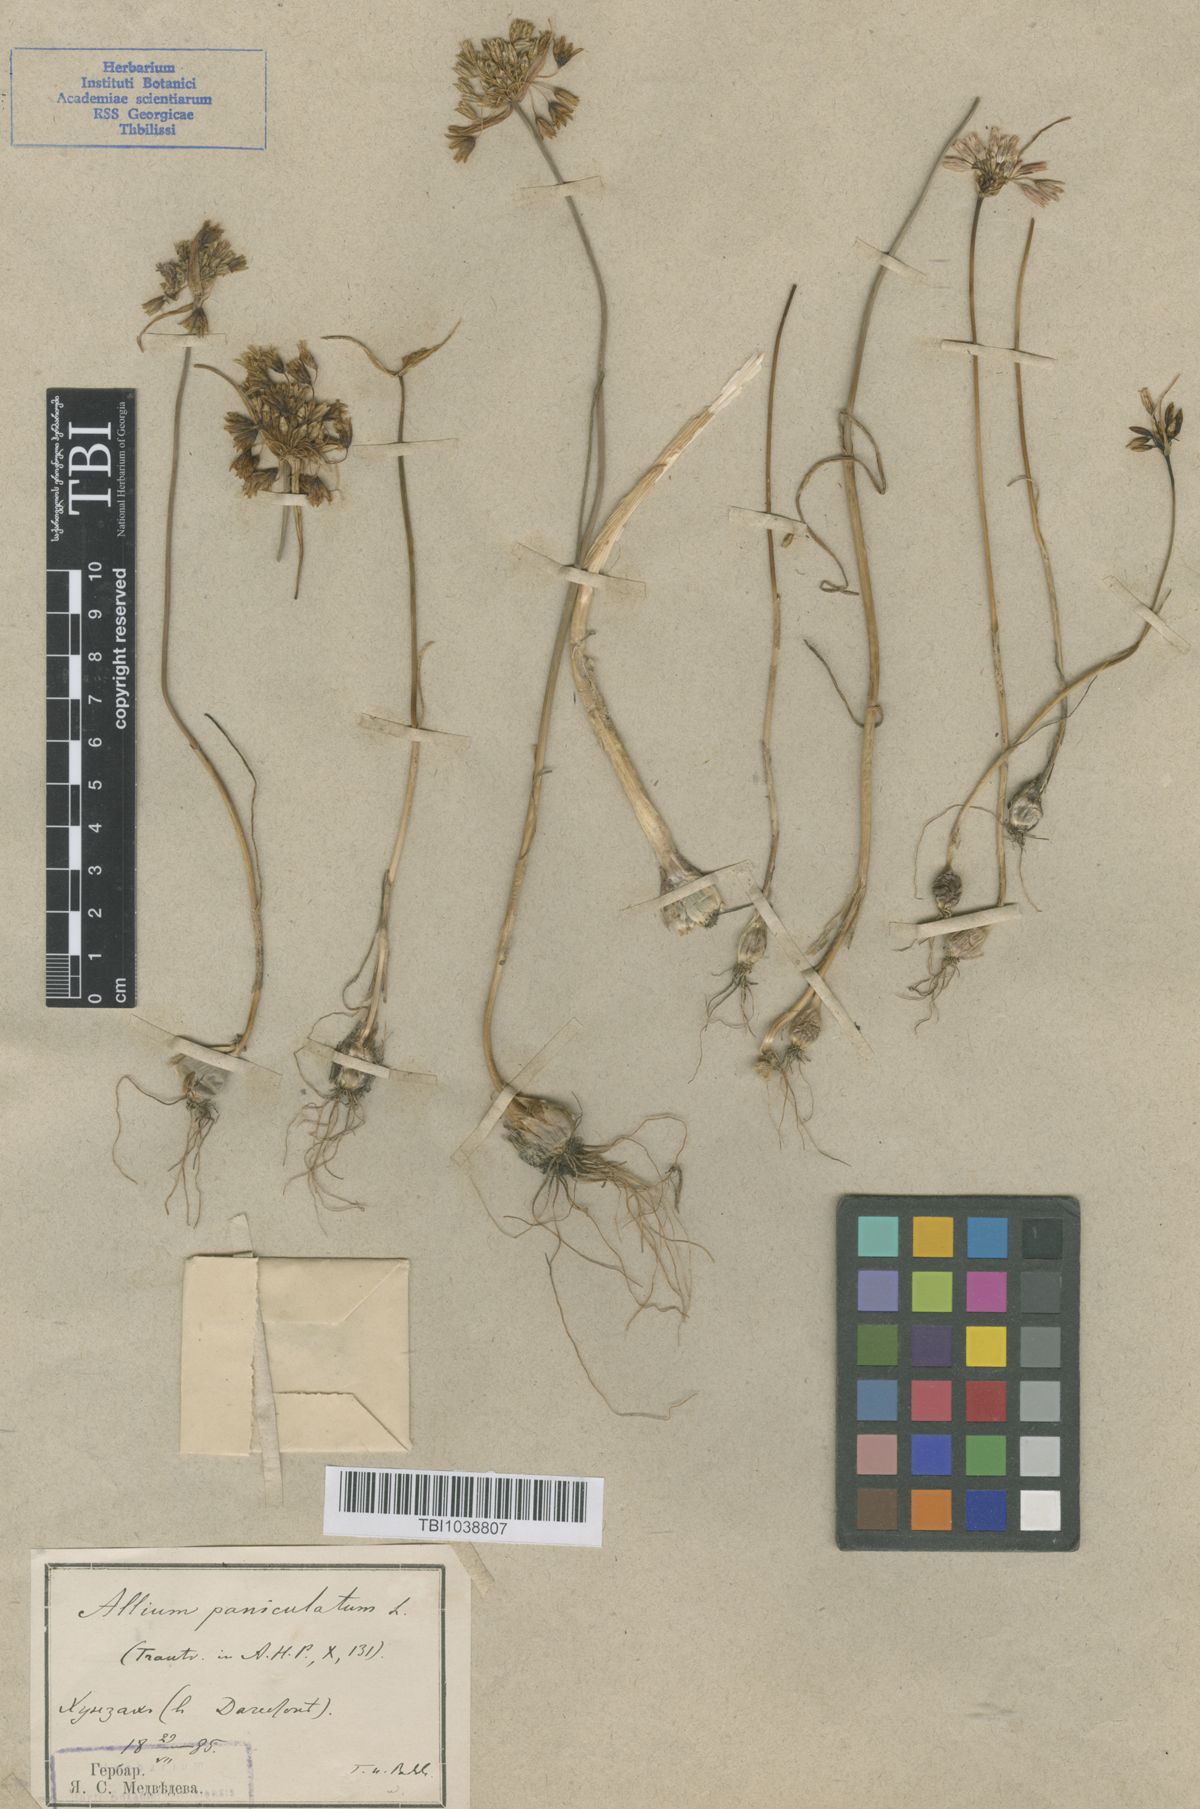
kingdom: Plantae
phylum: Tracheophyta
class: Liliopsida
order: Asparagales
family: Amaryllidaceae
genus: Allium
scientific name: Allium kunthianum
